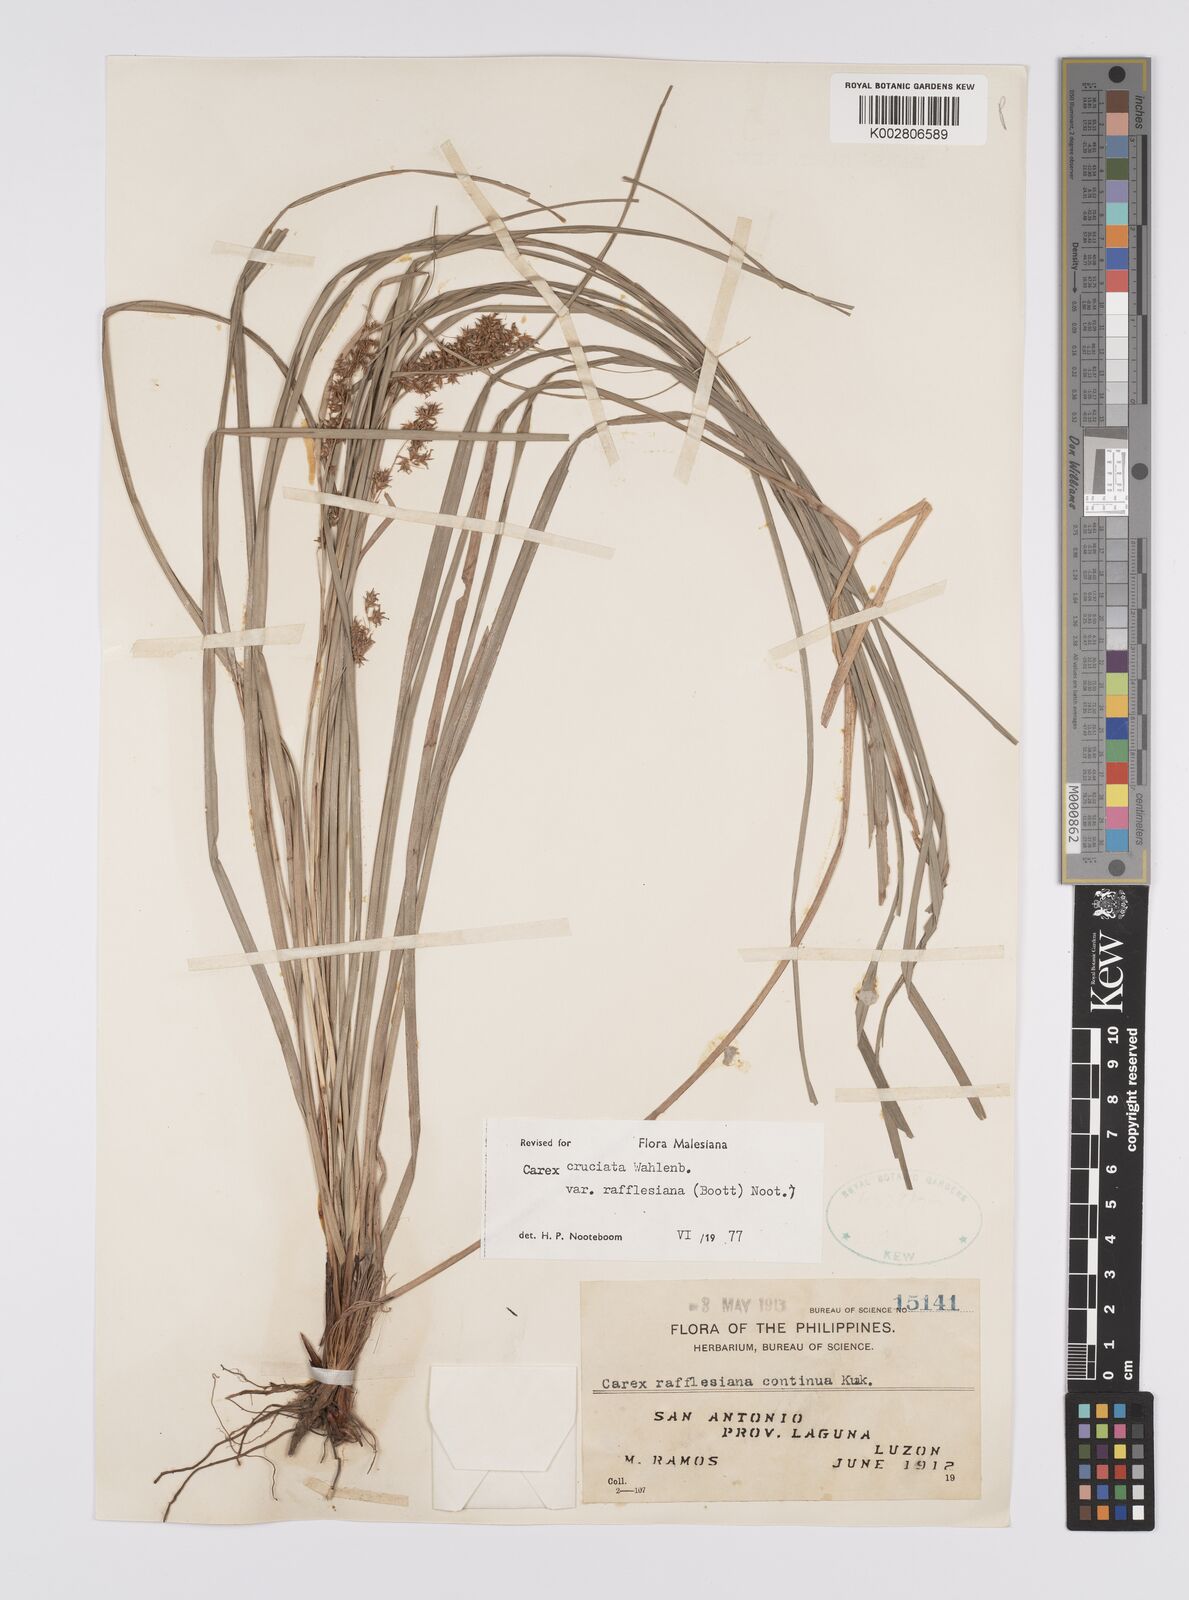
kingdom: Plantae
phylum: Tracheophyta
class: Liliopsida
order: Poales
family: Cyperaceae
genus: Carex
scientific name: Carex rafflesiana
